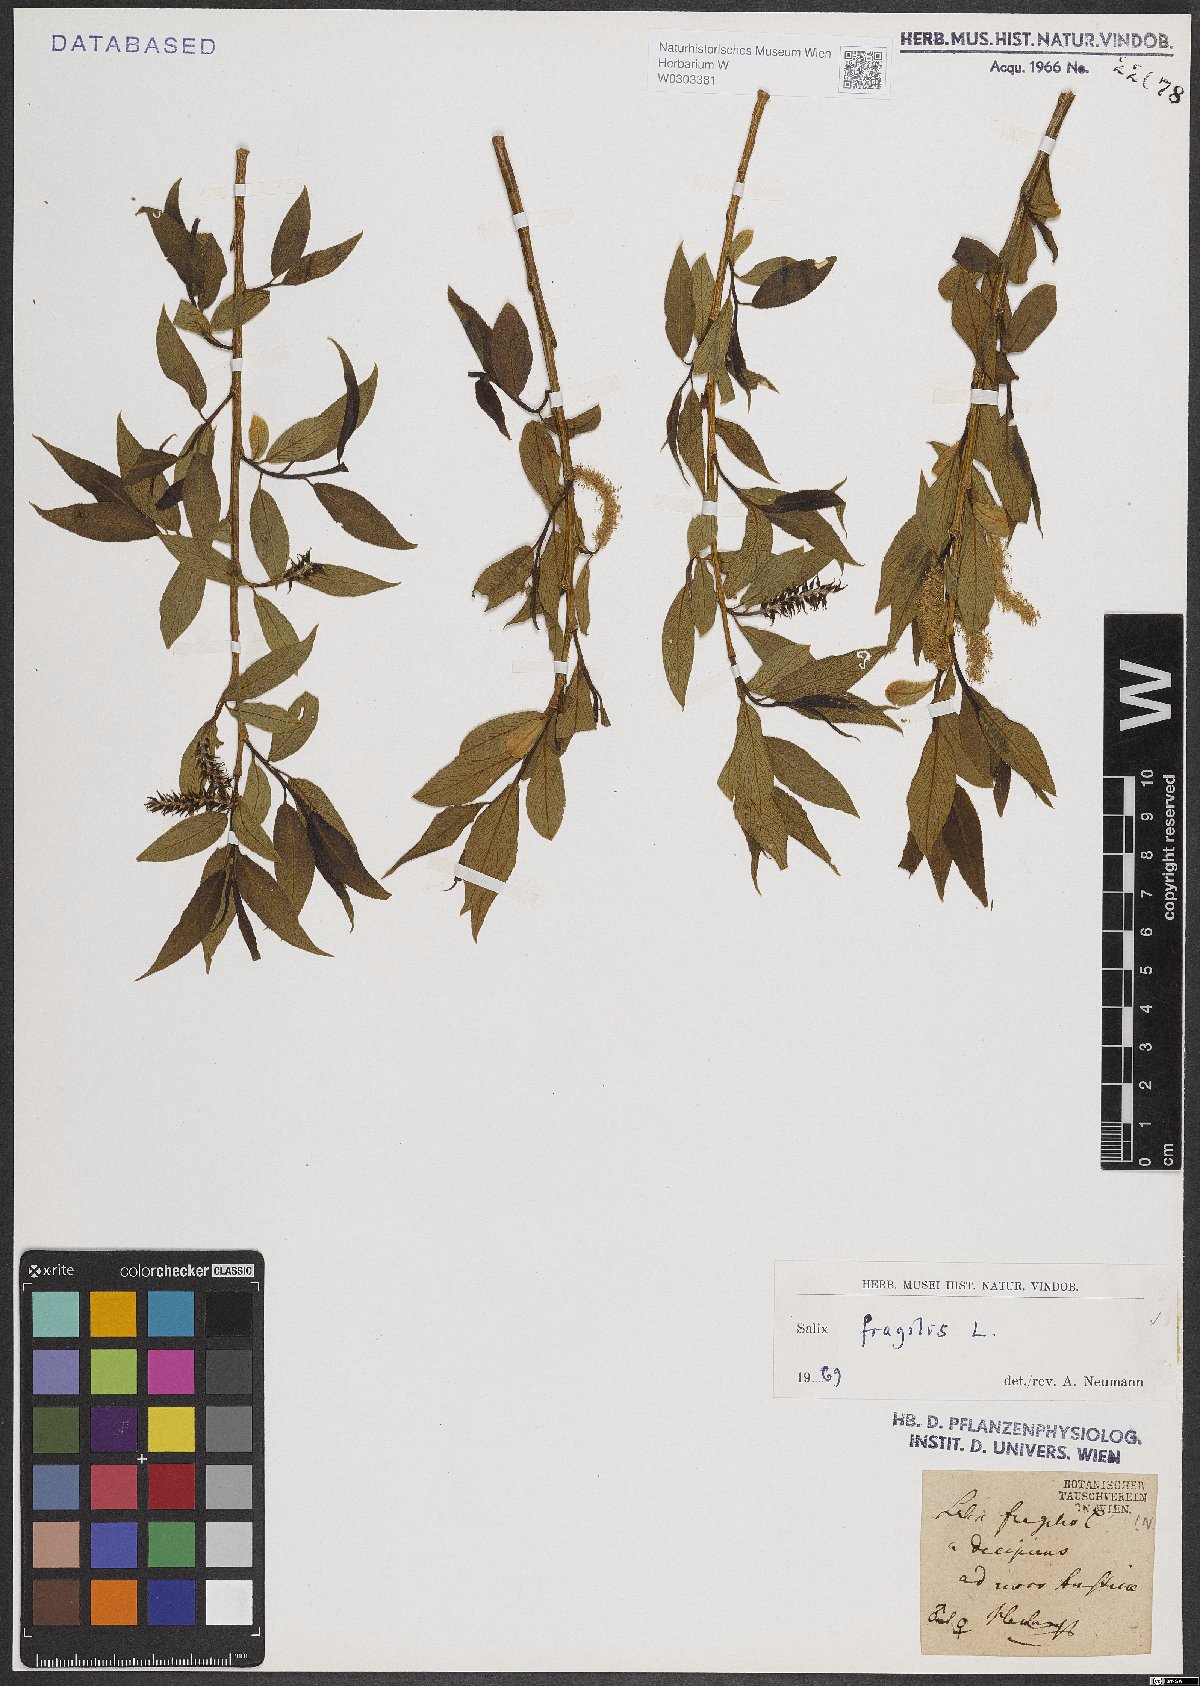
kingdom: Plantae
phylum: Tracheophyta
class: Magnoliopsida
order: Malpighiales
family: Salicaceae
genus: Salix
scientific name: Salix fragilis
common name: Crack willow
